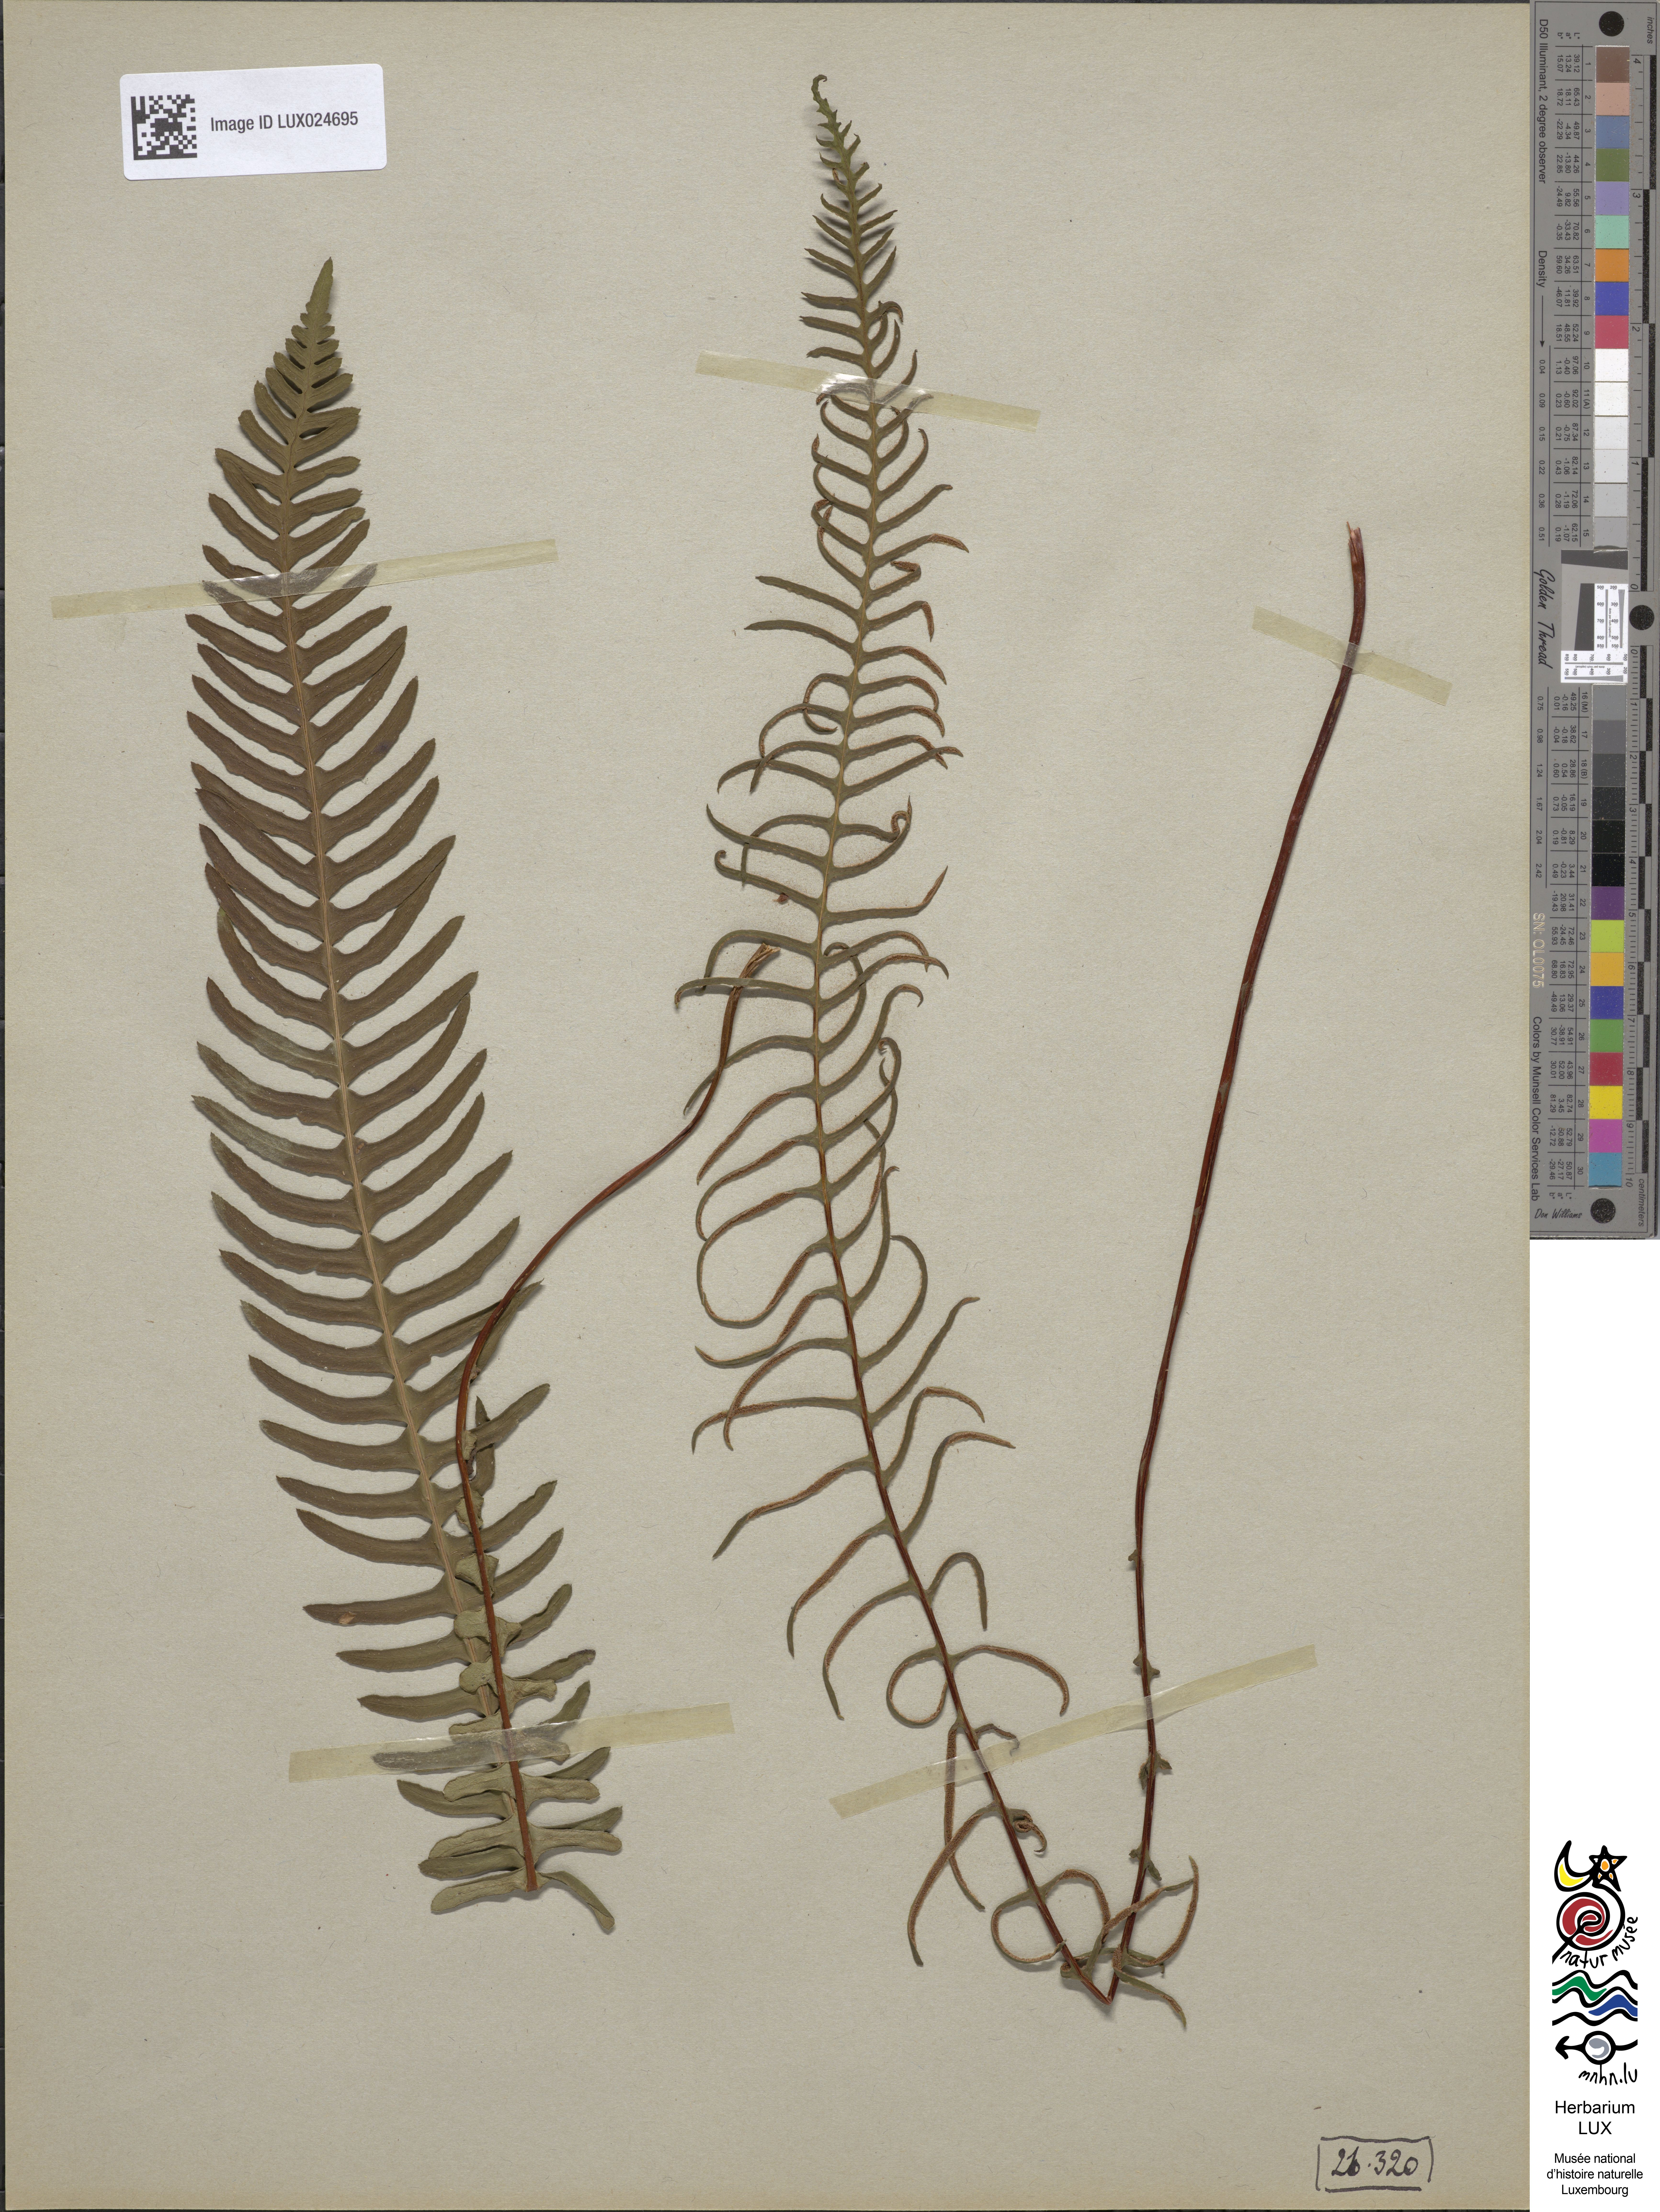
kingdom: Plantae
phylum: Tracheophyta
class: Polypodiopsida
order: Polypodiales
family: Blechnaceae
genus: Struthiopteris
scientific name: Struthiopteris spicant
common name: Deer fern
